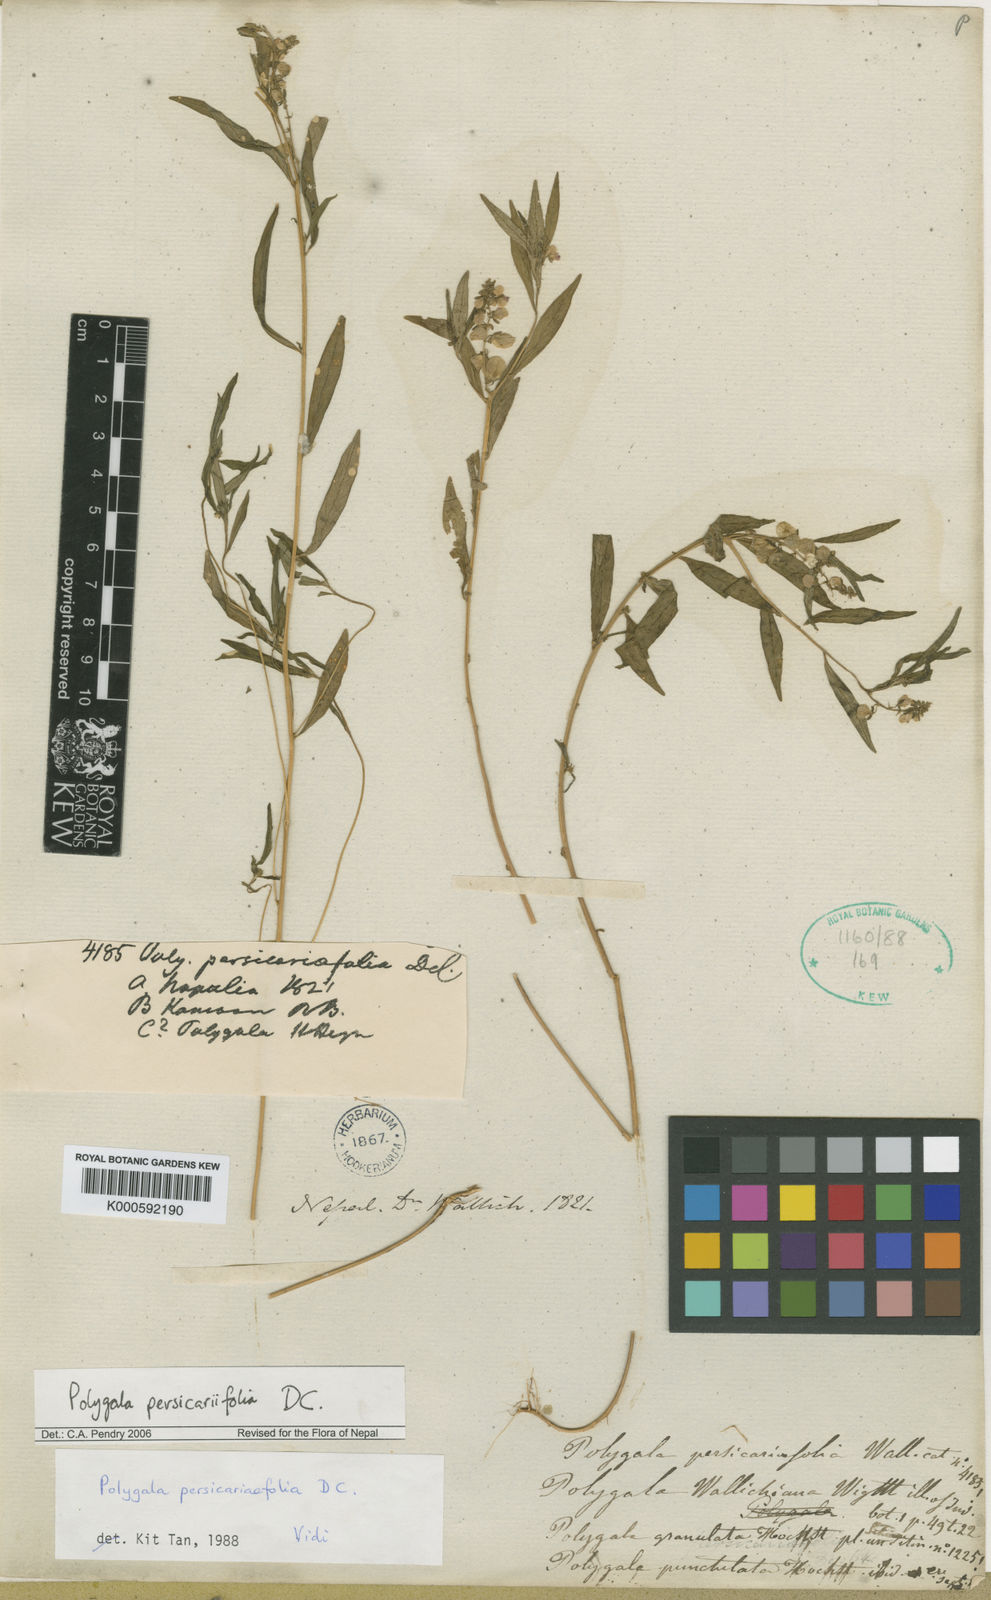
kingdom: Plantae
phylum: Tracheophyta
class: Magnoliopsida
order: Fabales
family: Polygalaceae
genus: Polygala
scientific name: Polygala persicariifolia
